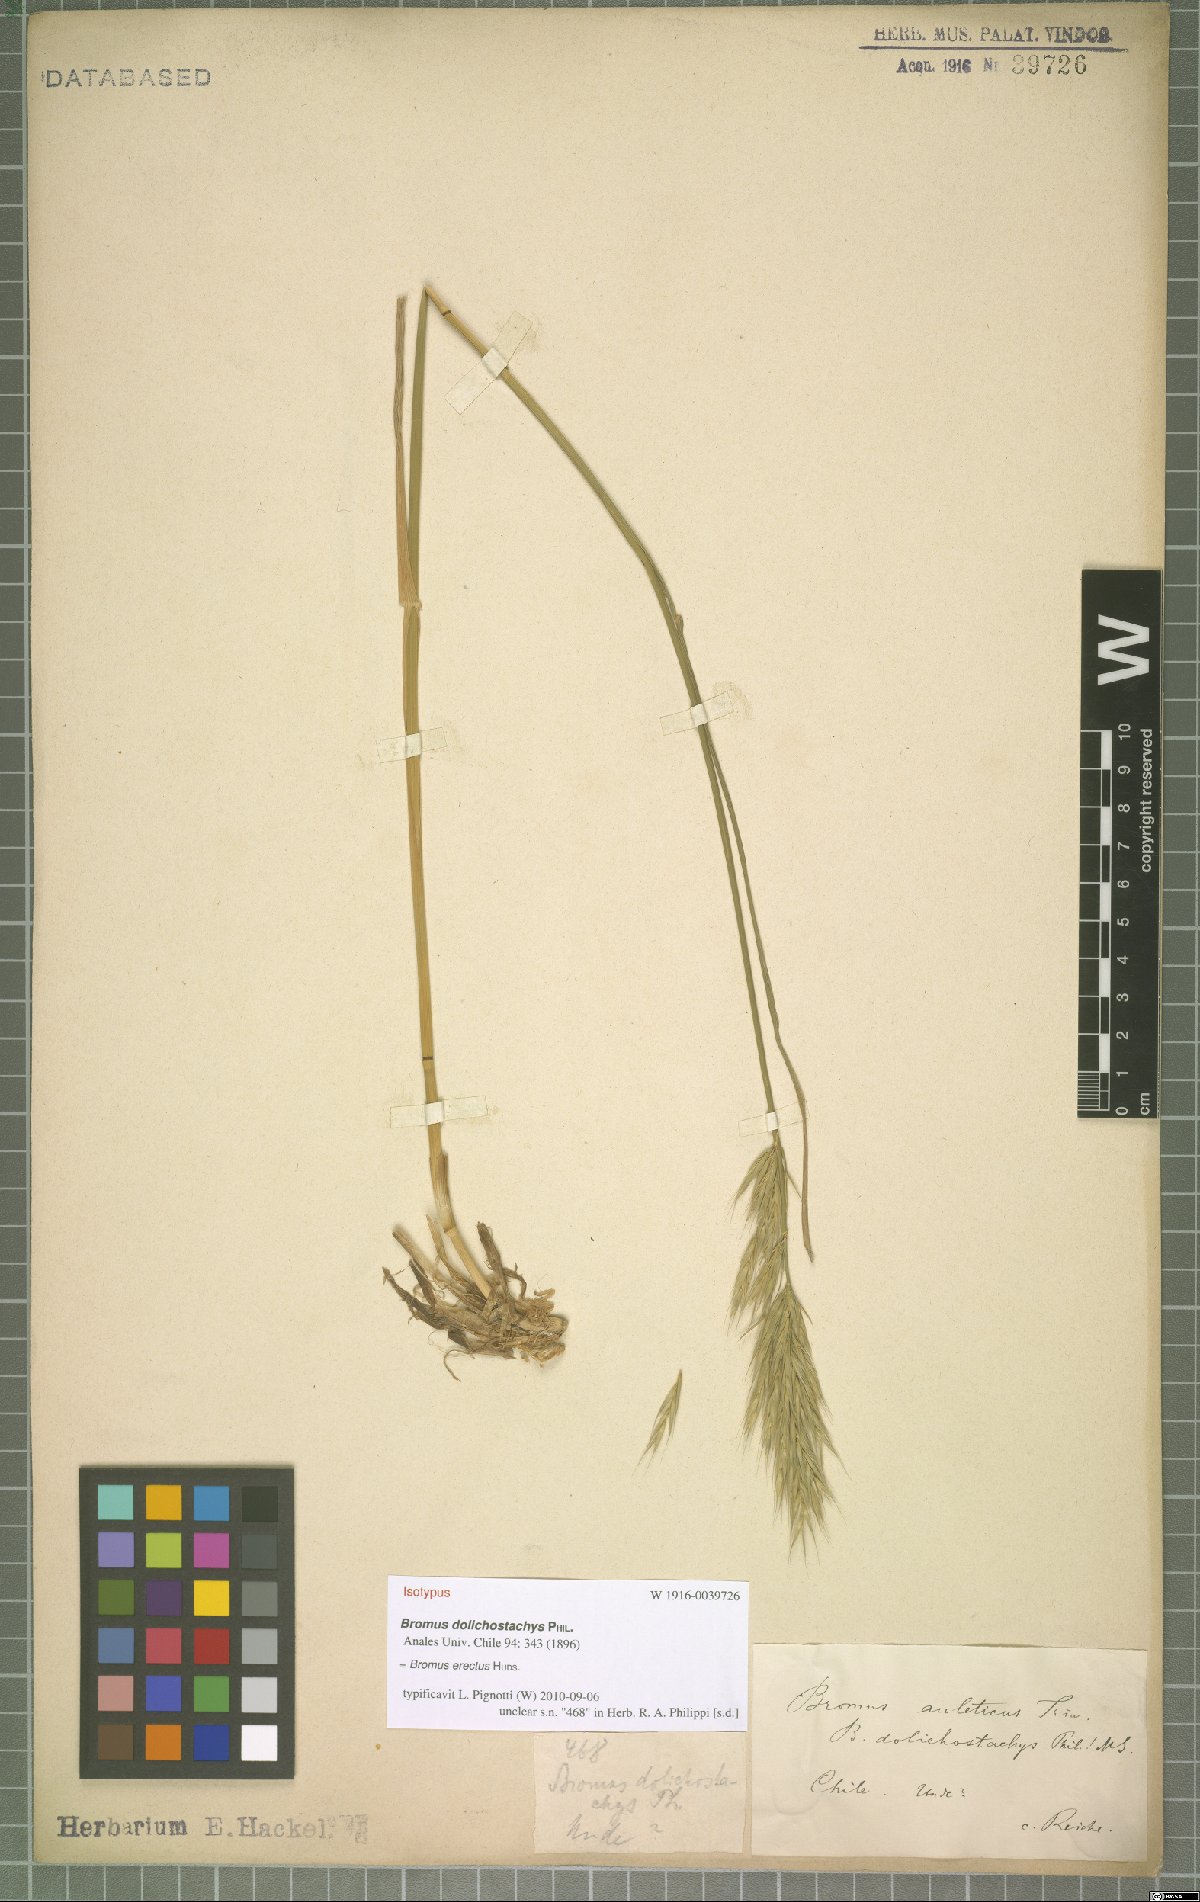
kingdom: Plantae
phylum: Tracheophyta
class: Liliopsida
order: Poales
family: Poaceae
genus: Bromus
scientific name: Bromus erectus
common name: Erect brome
